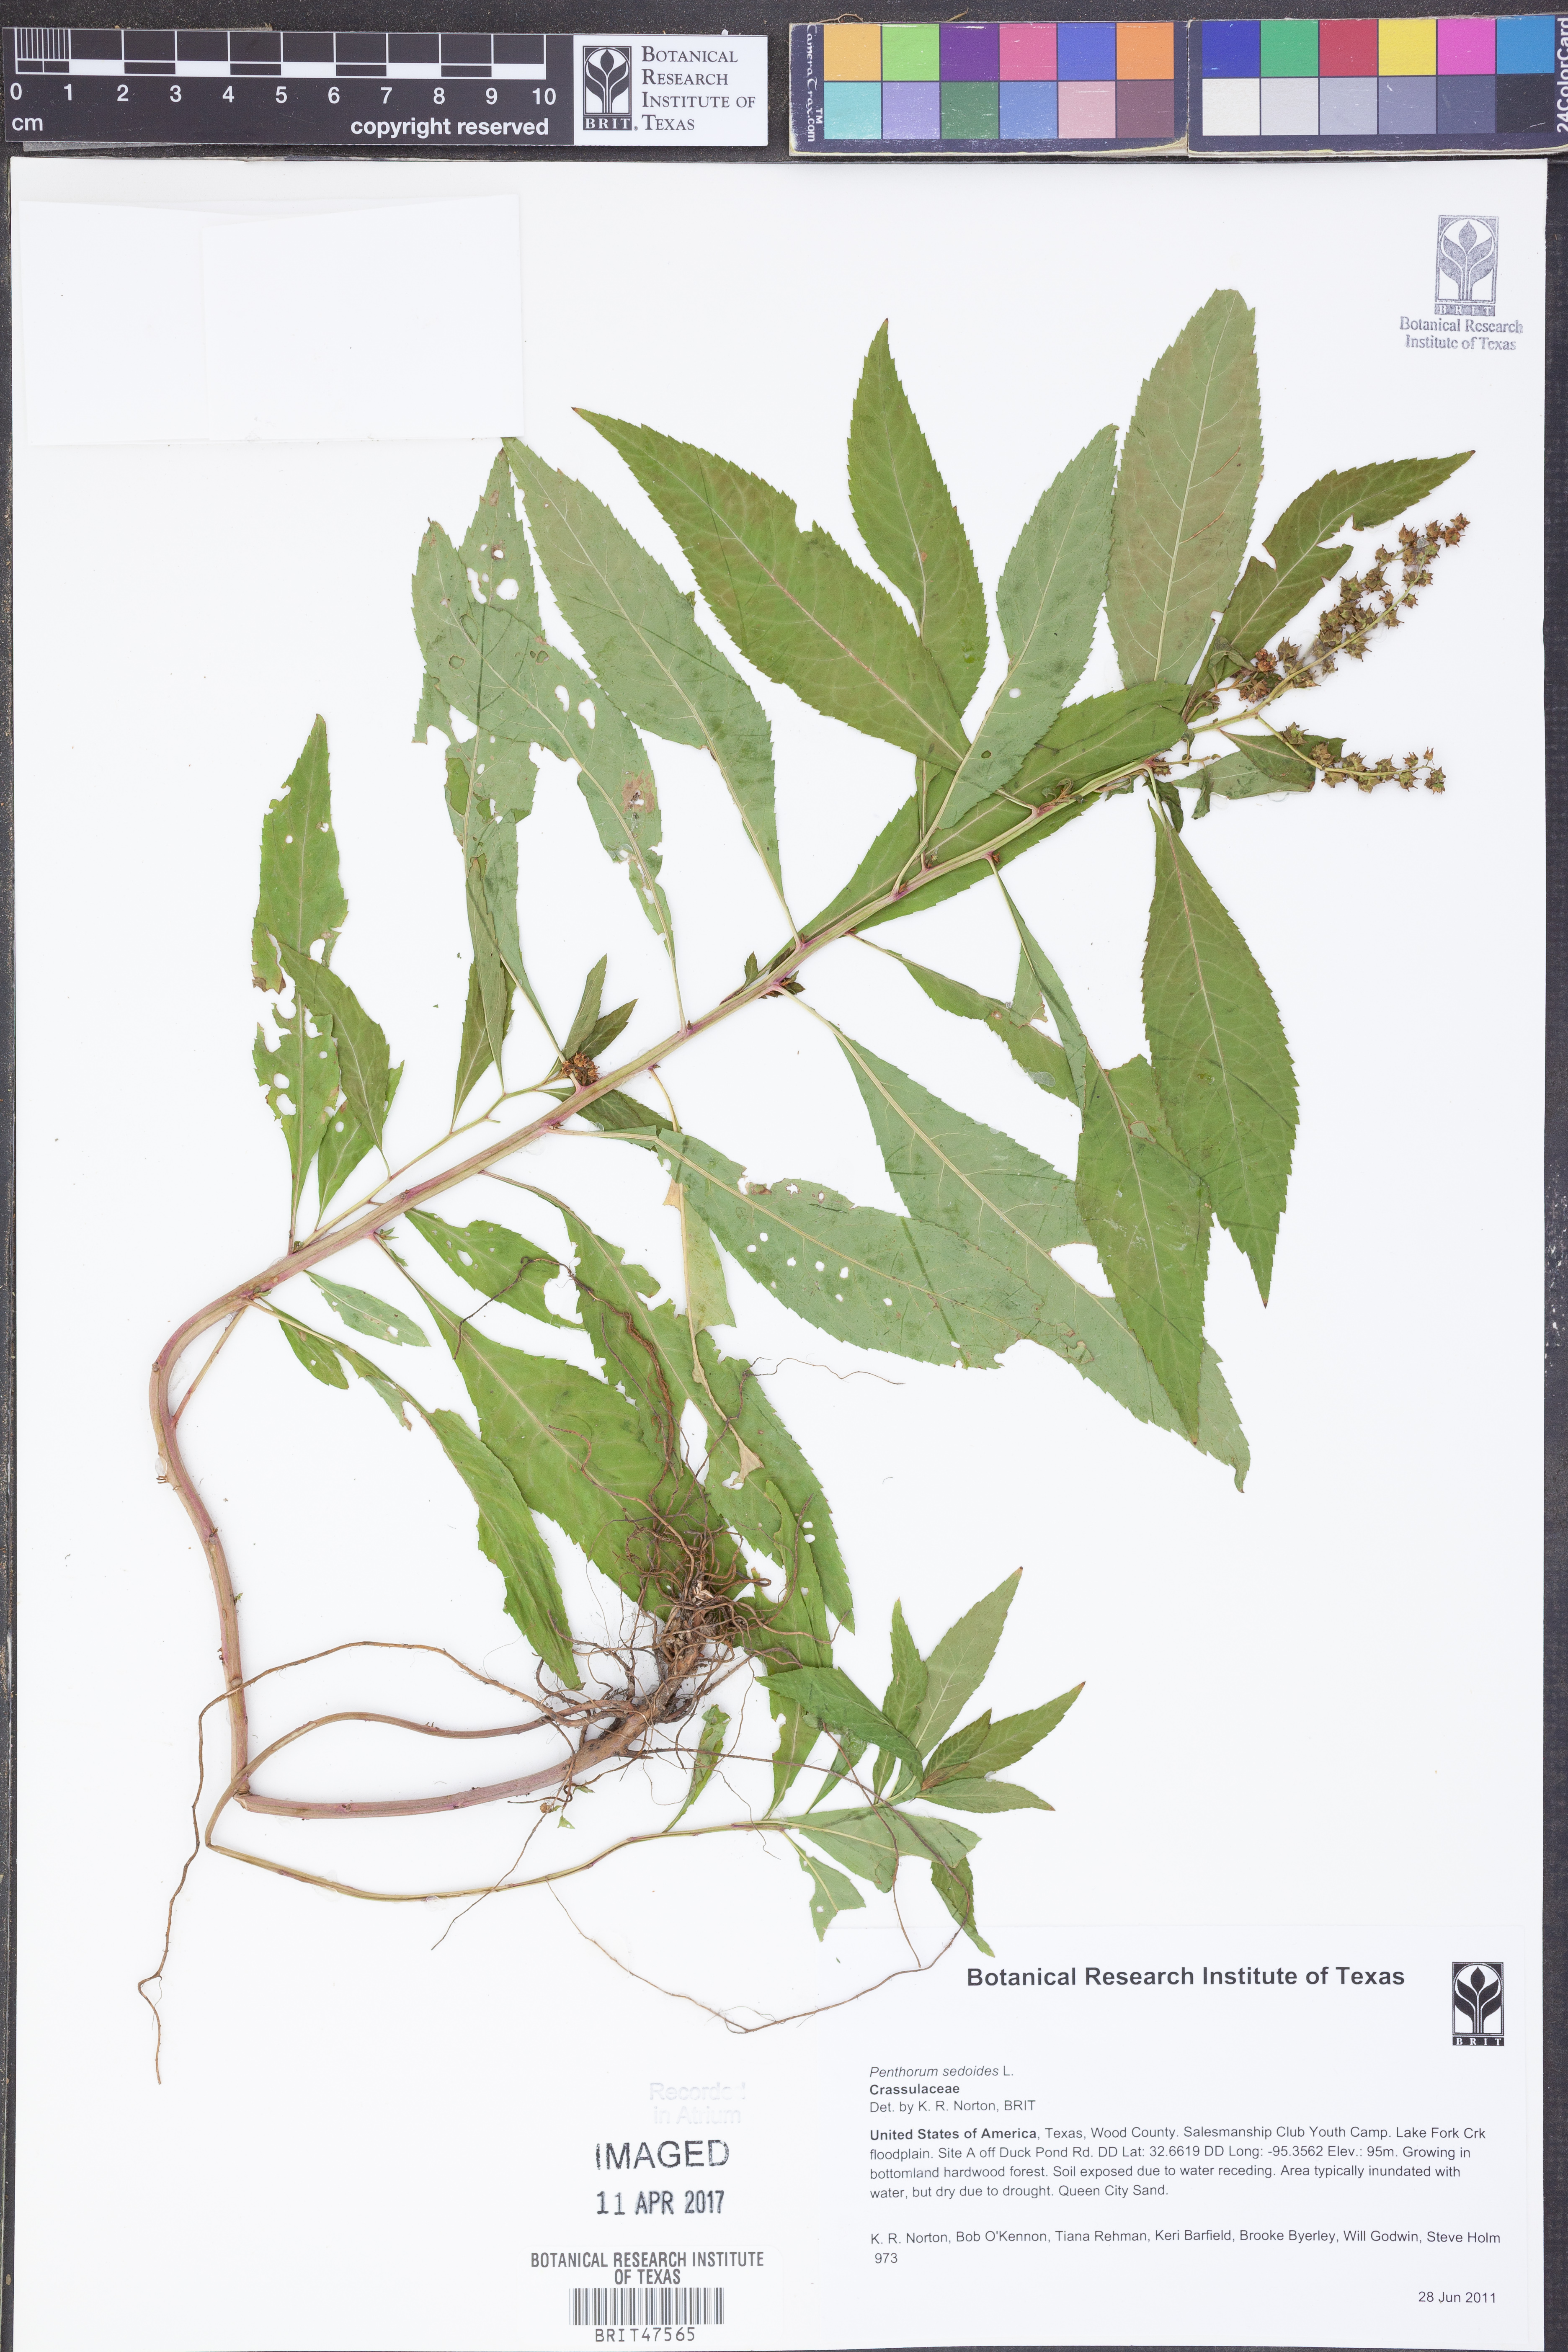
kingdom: Plantae
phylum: Tracheophyta
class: Magnoliopsida
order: Saxifragales
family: Penthoraceae
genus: Penthorum
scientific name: Penthorum sedoides
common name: Ditch stonecrop
